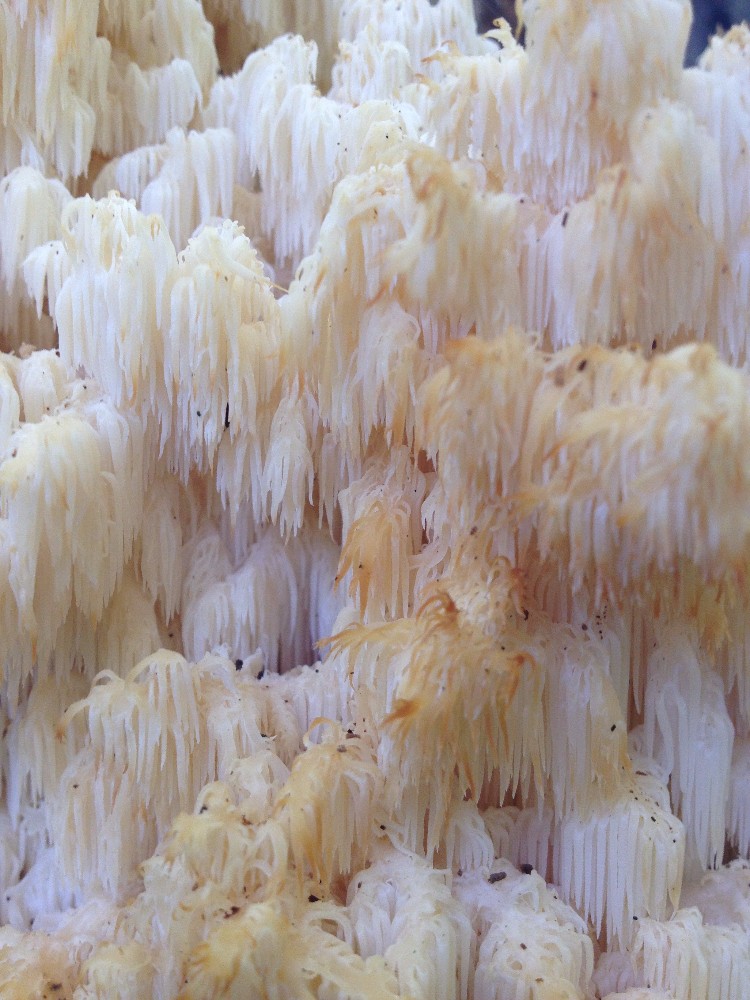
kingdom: Fungi
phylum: Basidiomycota
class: Agaricomycetes
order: Russulales
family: Hericiaceae
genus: Hericium
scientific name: Hericium coralloides
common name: koralpigsvamp
